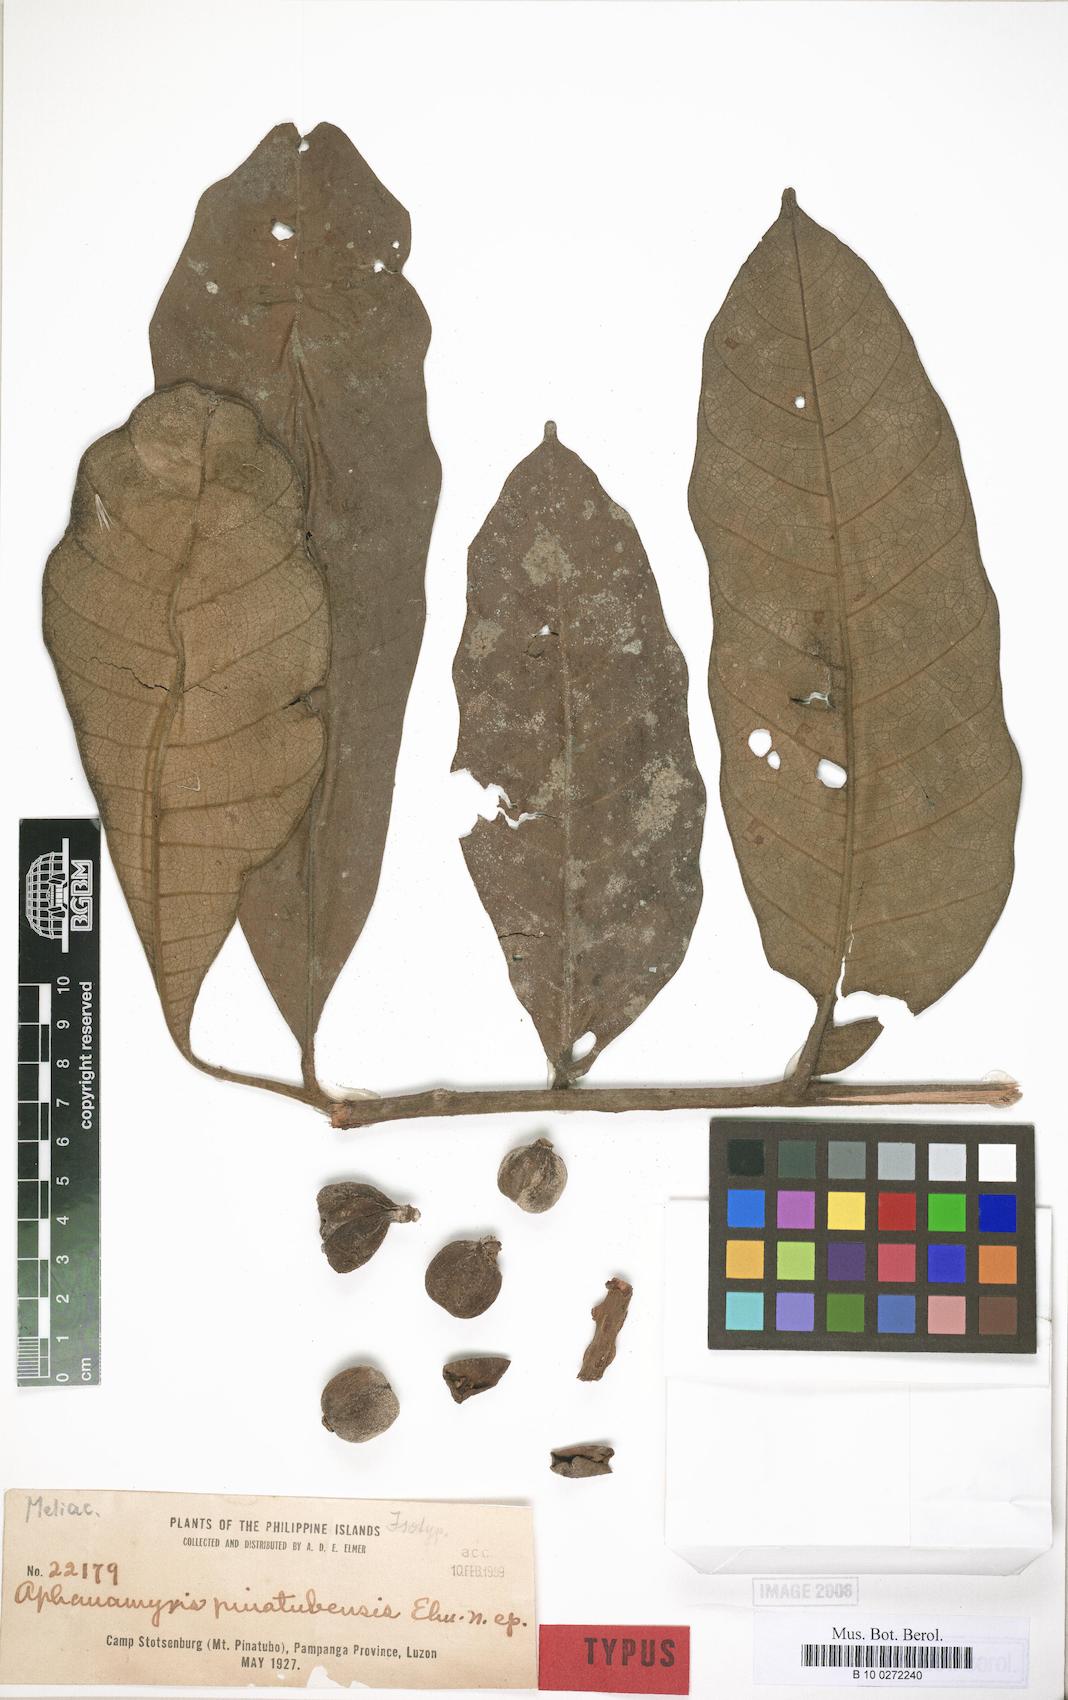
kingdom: Plantae
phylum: Tracheophyta
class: Magnoliopsida
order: Sapindales
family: Meliaceae
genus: Aphanamixis
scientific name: Aphanamixis polystachya
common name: Pithraj tree
